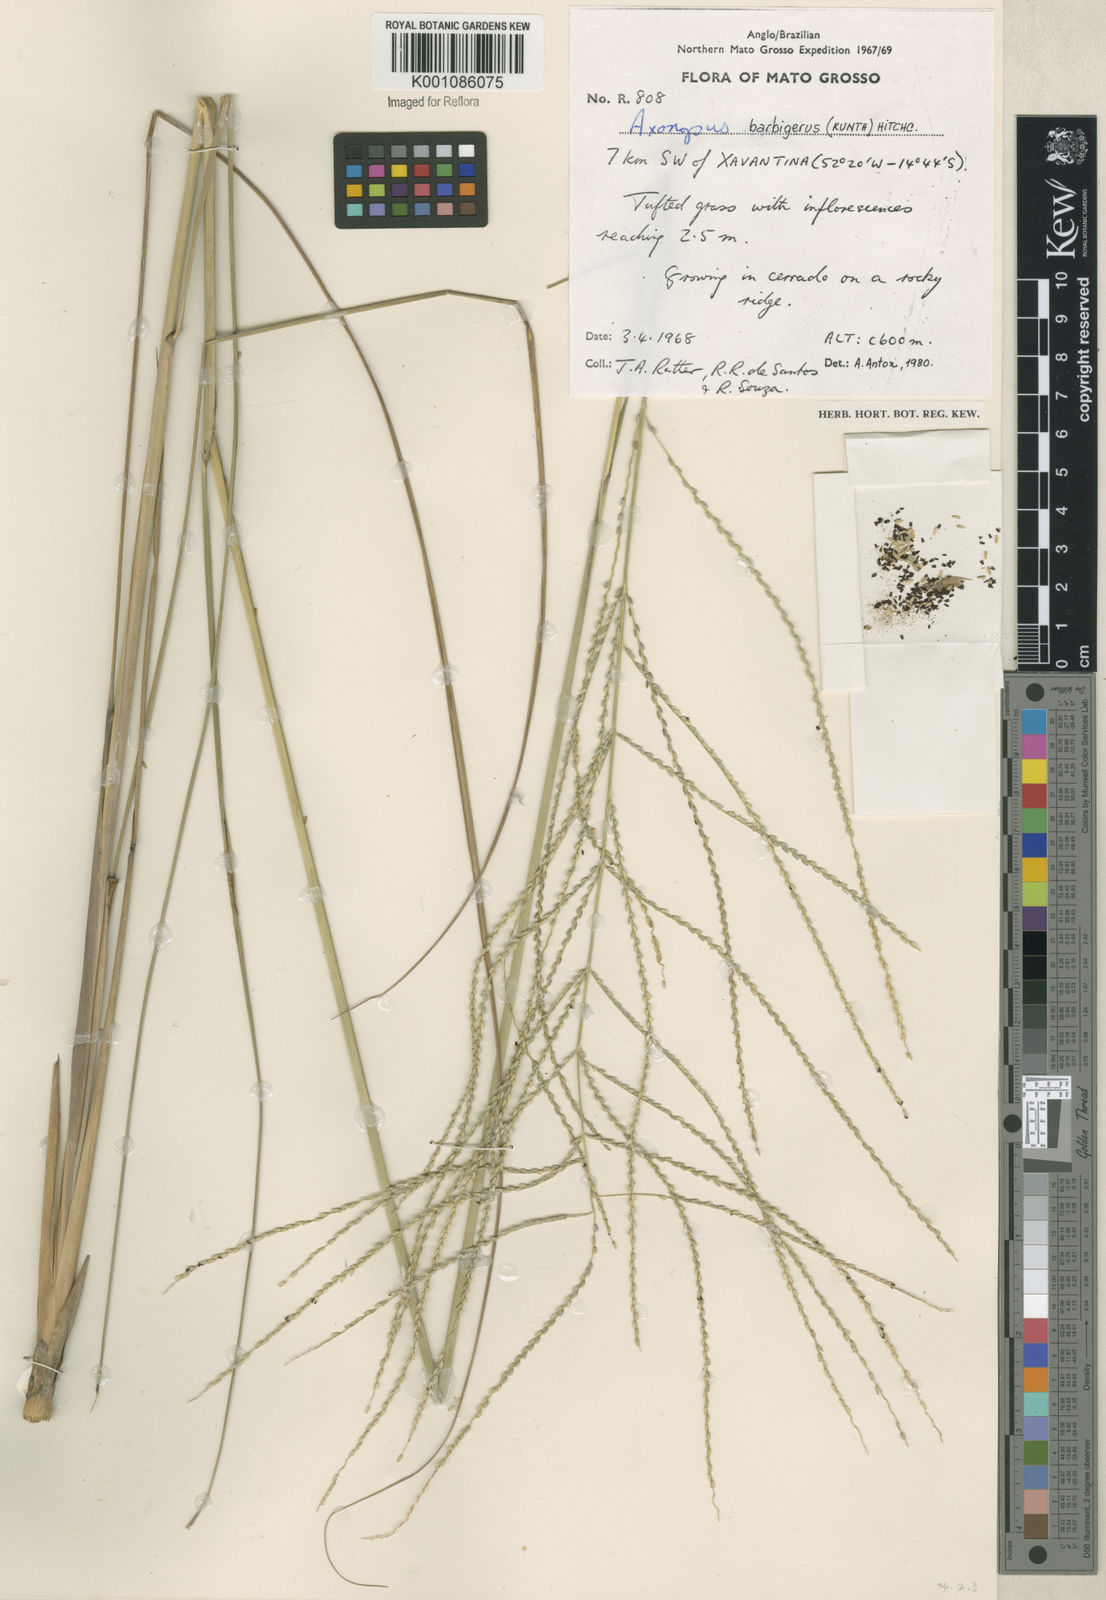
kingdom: Plantae
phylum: Tracheophyta
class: Liliopsida
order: Poales
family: Poaceae
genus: Axonopus
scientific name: Axonopus siccus
